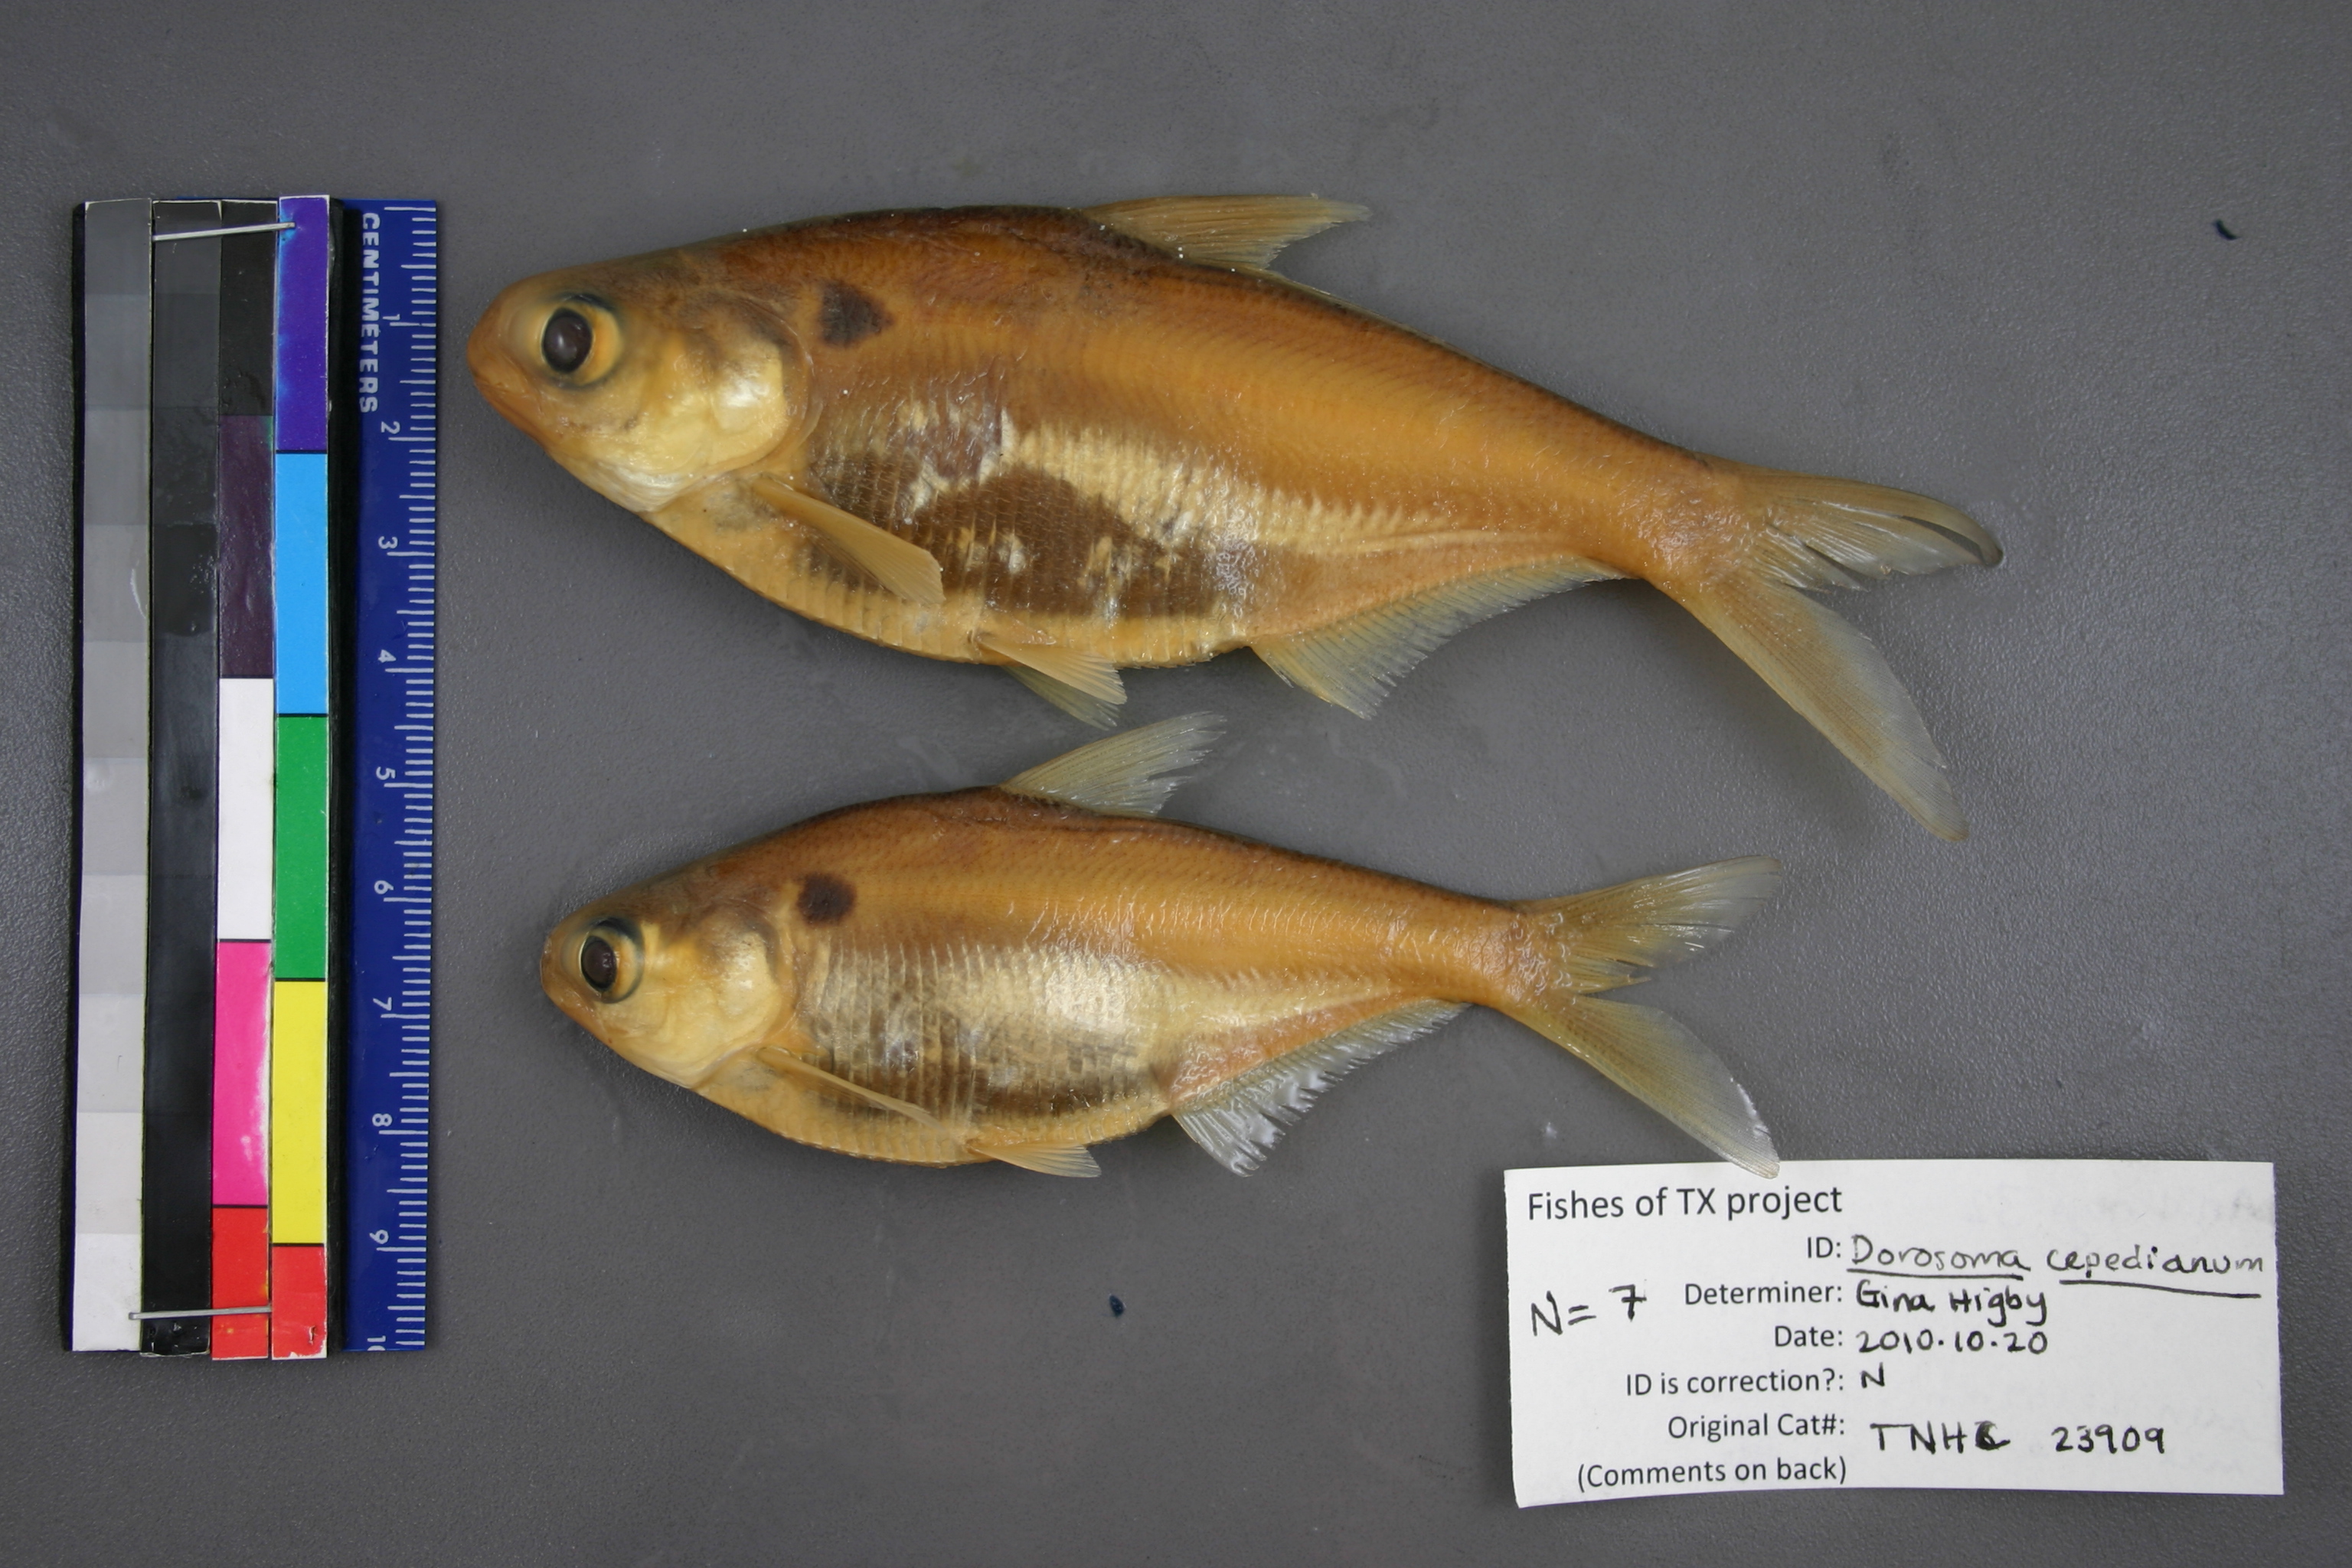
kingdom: Animalia
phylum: Chordata
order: Clupeiformes
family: Clupeidae
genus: Dorosoma
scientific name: Dorosoma cepedianum
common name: Gizzard shad
